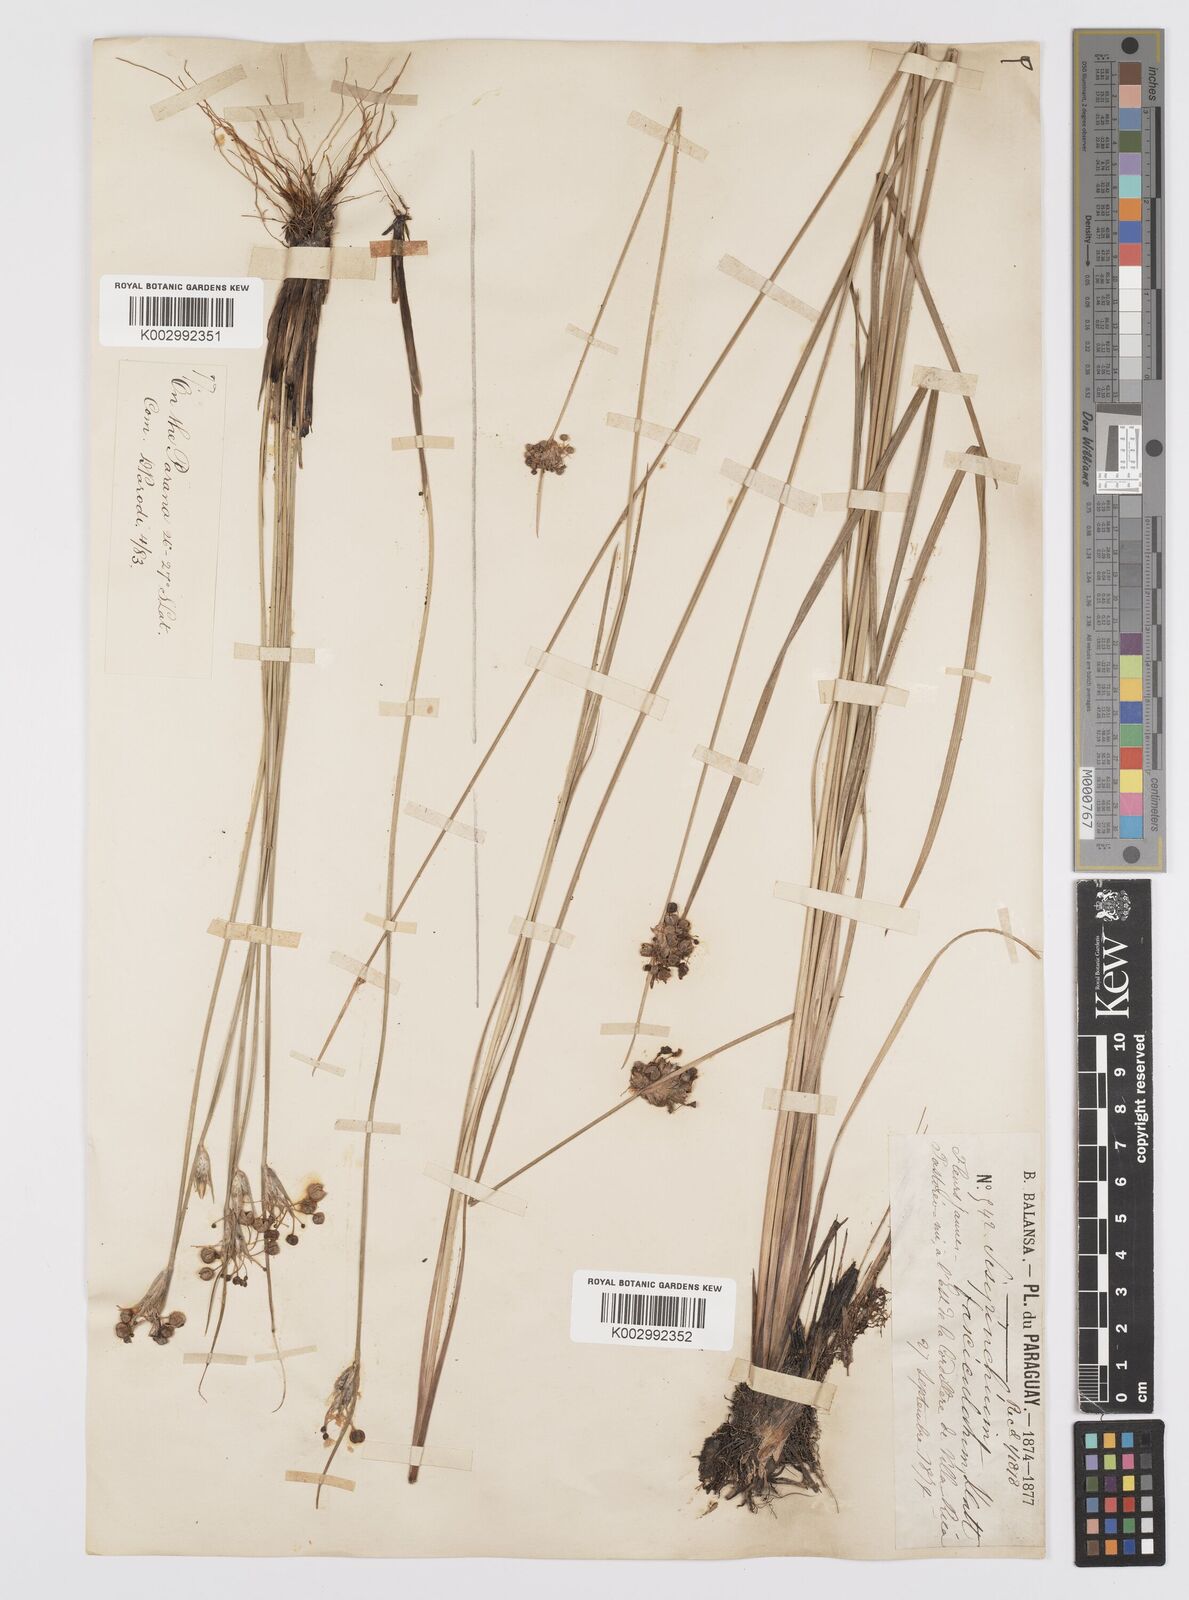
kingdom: Plantae
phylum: Tracheophyta
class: Liliopsida
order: Asparagales
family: Iridaceae
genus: Sisyrinchium
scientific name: Sisyrinchium fasciculatum
